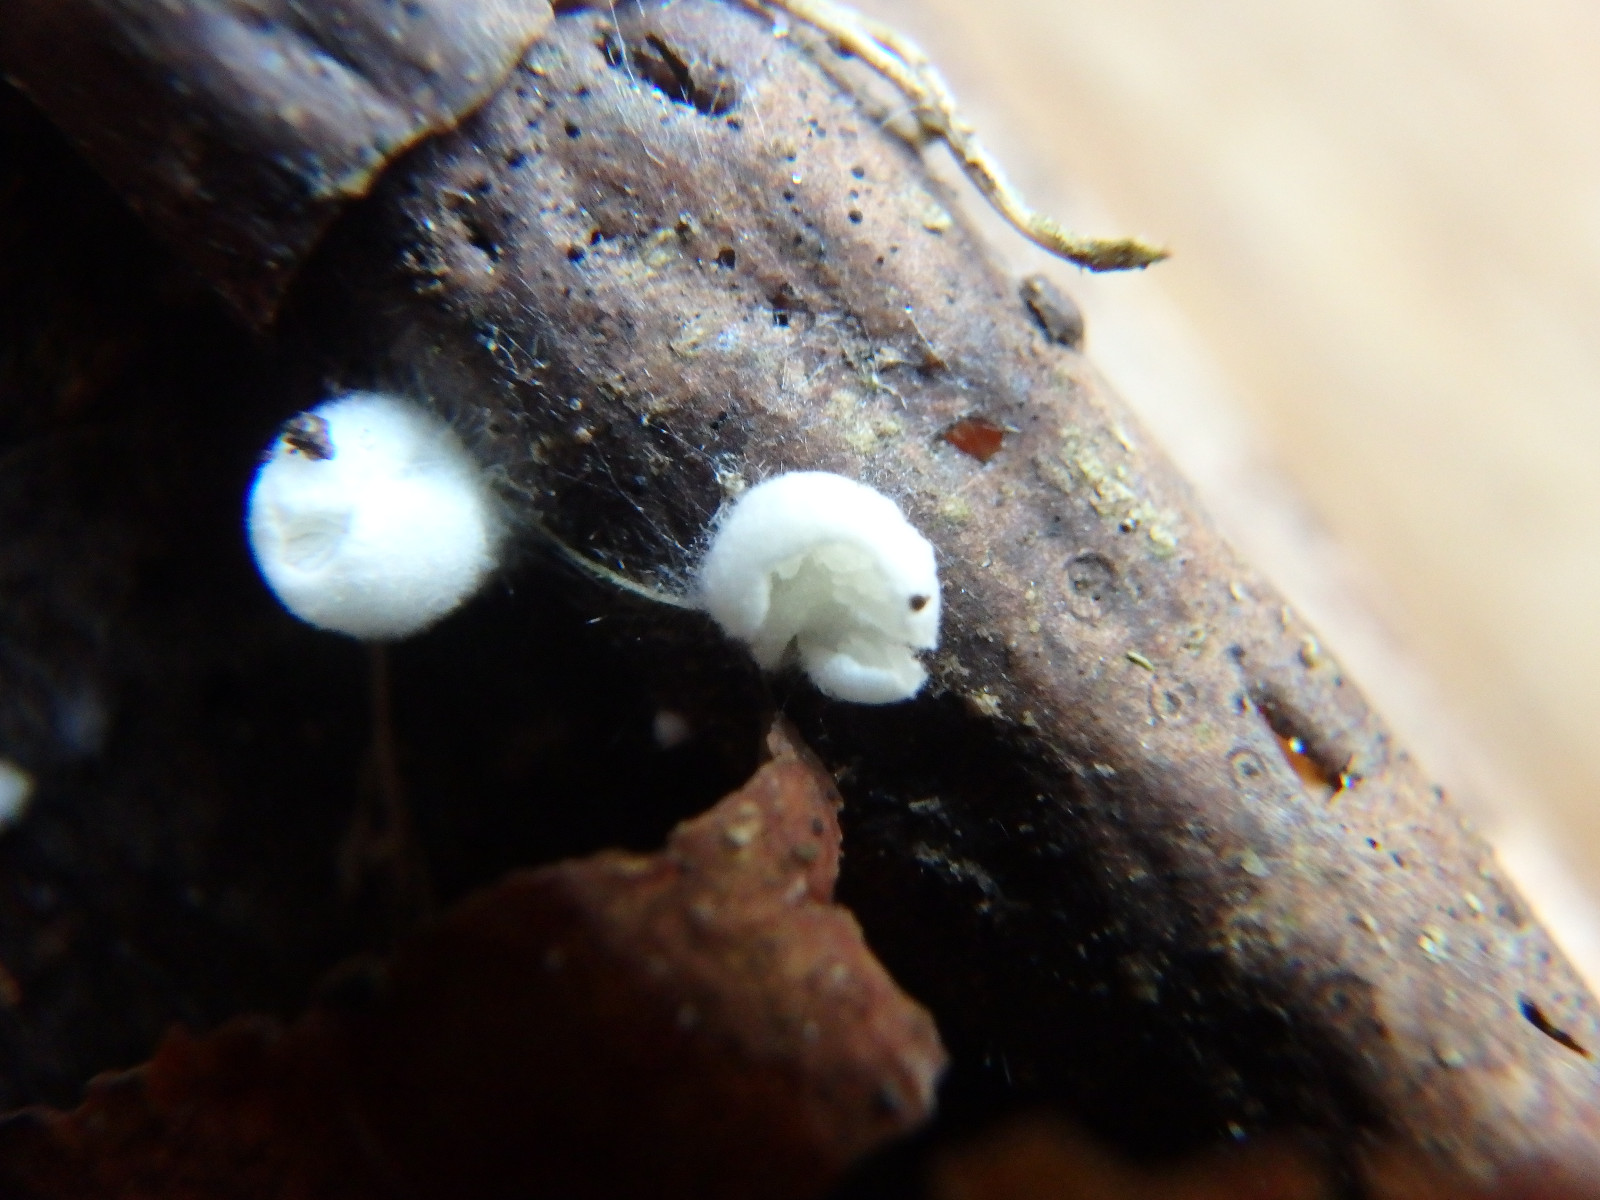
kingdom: Fungi
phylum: Basidiomycota
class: Agaricomycetes
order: Agaricales
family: Crepidotaceae
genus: Crepidotus
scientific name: Crepidotus variabilis
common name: forskelligformet muslingesvamp
